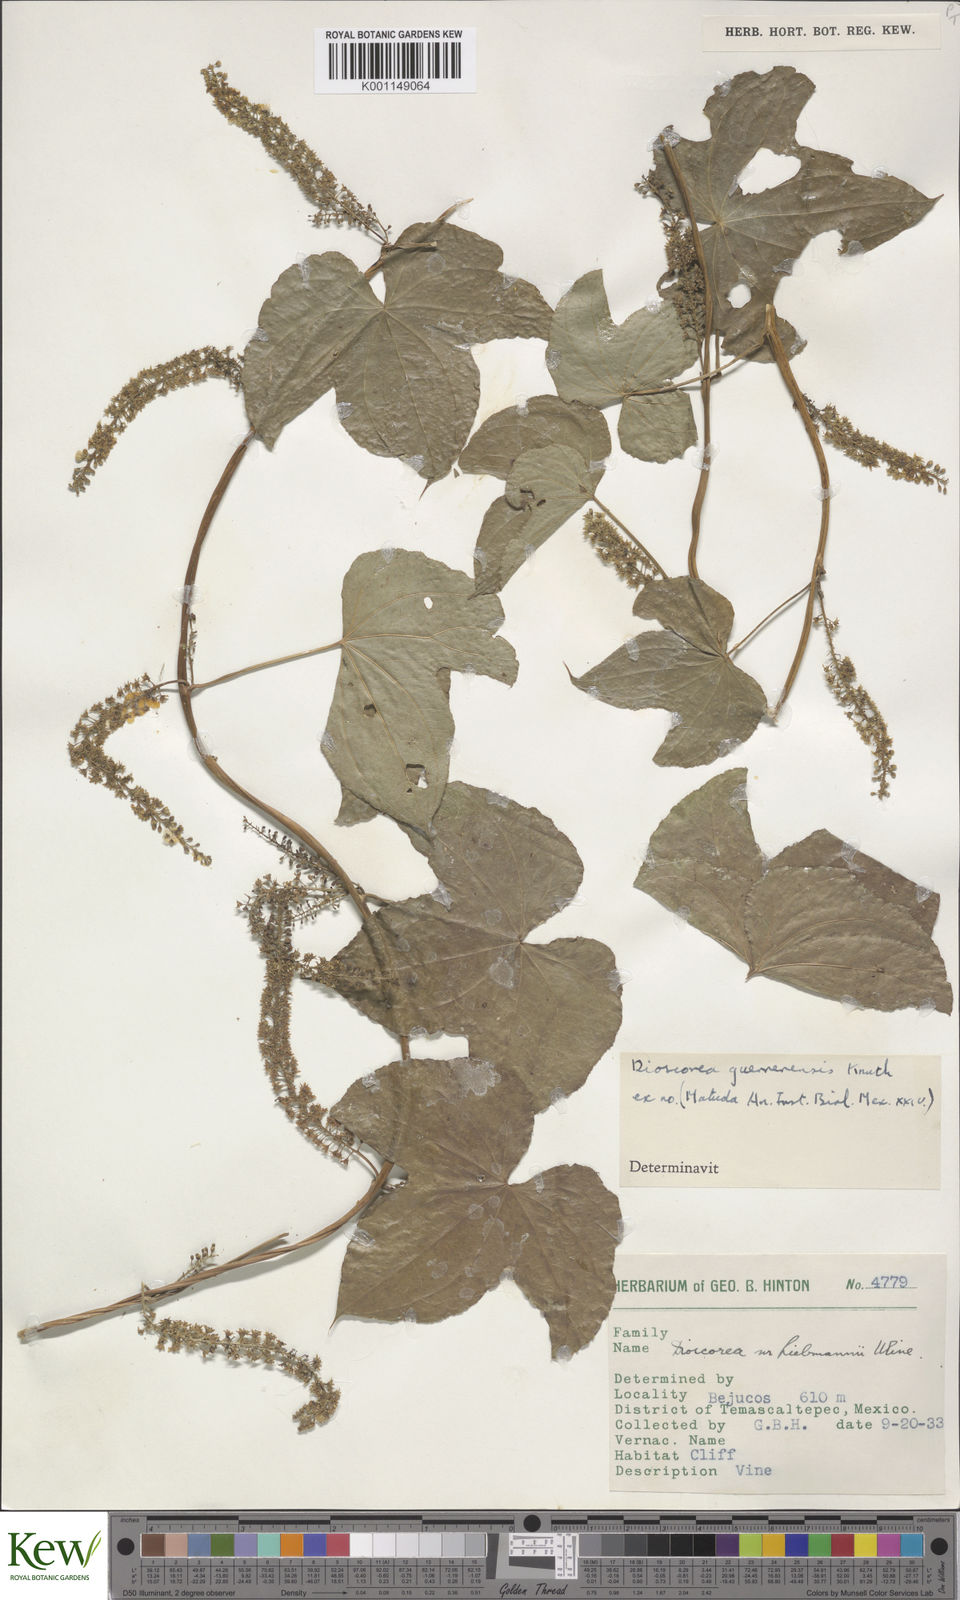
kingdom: Plantae
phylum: Tracheophyta
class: Liliopsida
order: Dioscoreales
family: Dioscoreaceae
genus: Dioscorea
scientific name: Dioscorea guerrerensis
